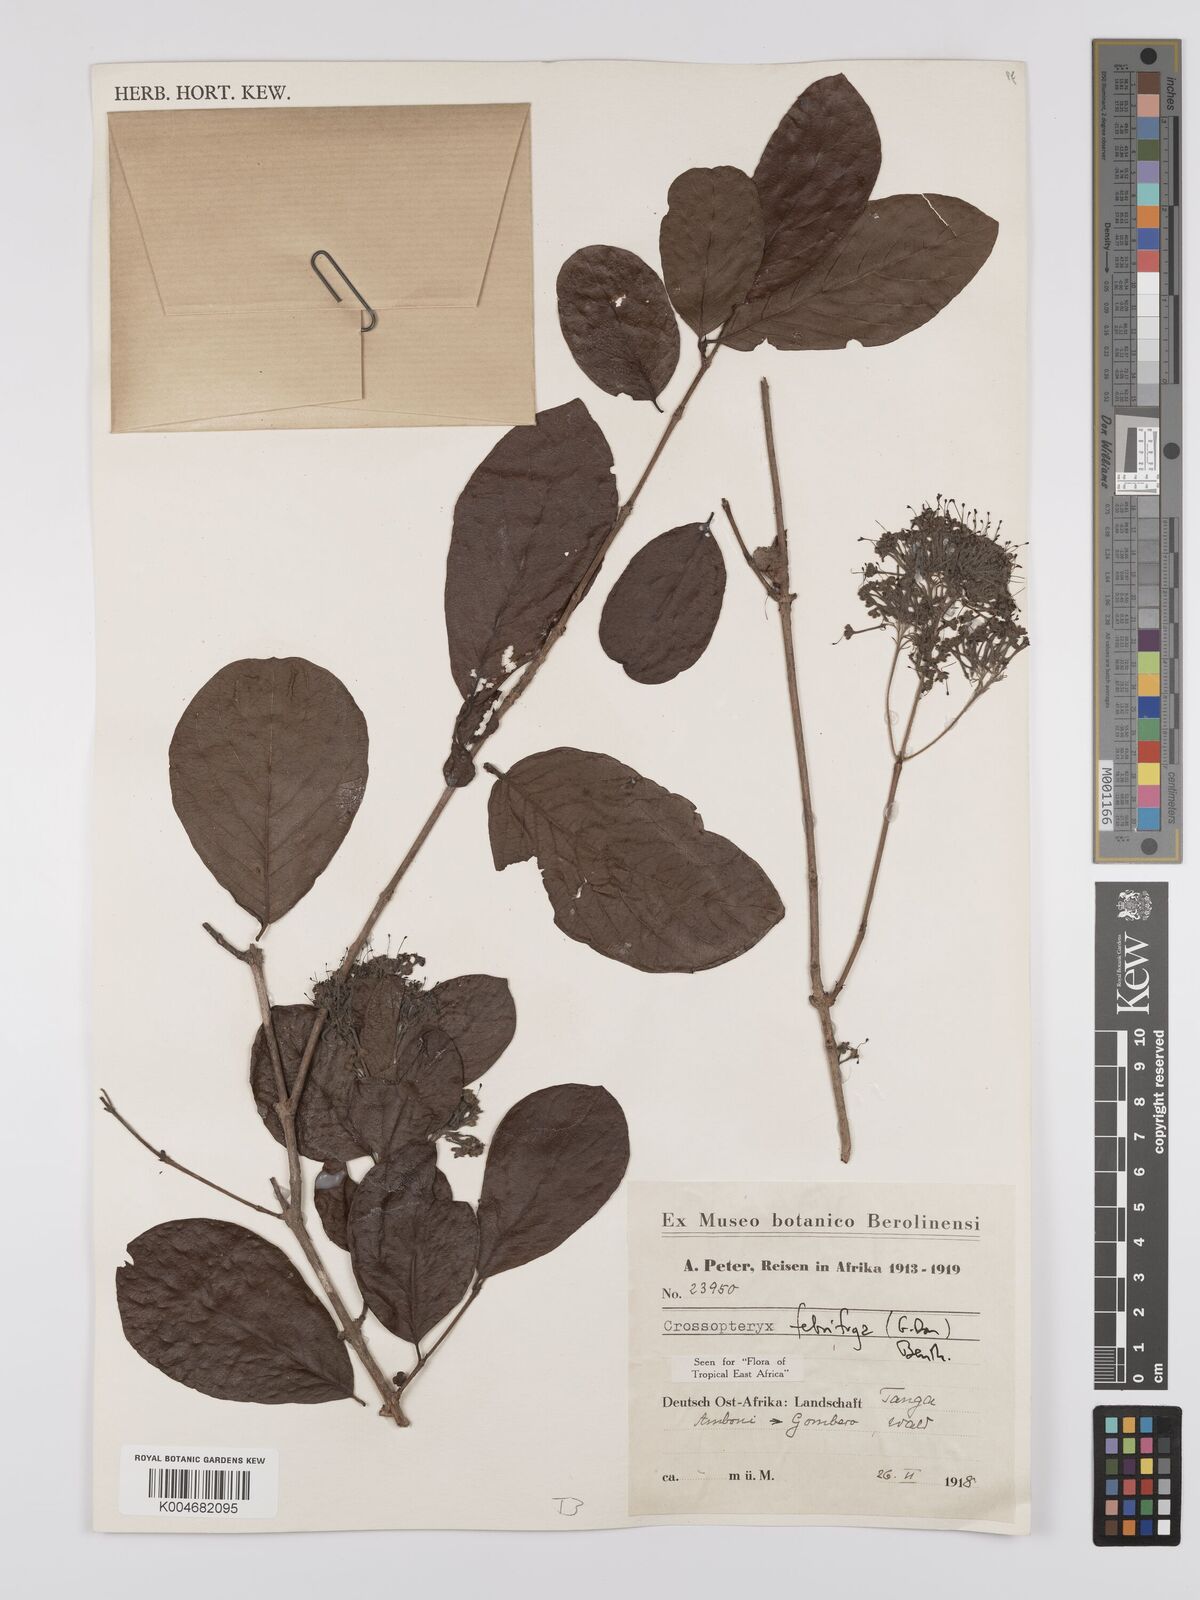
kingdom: Plantae
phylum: Tracheophyta
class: Magnoliopsida
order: Gentianales
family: Rubiaceae
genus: Crossopteryx
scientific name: Crossopteryx
